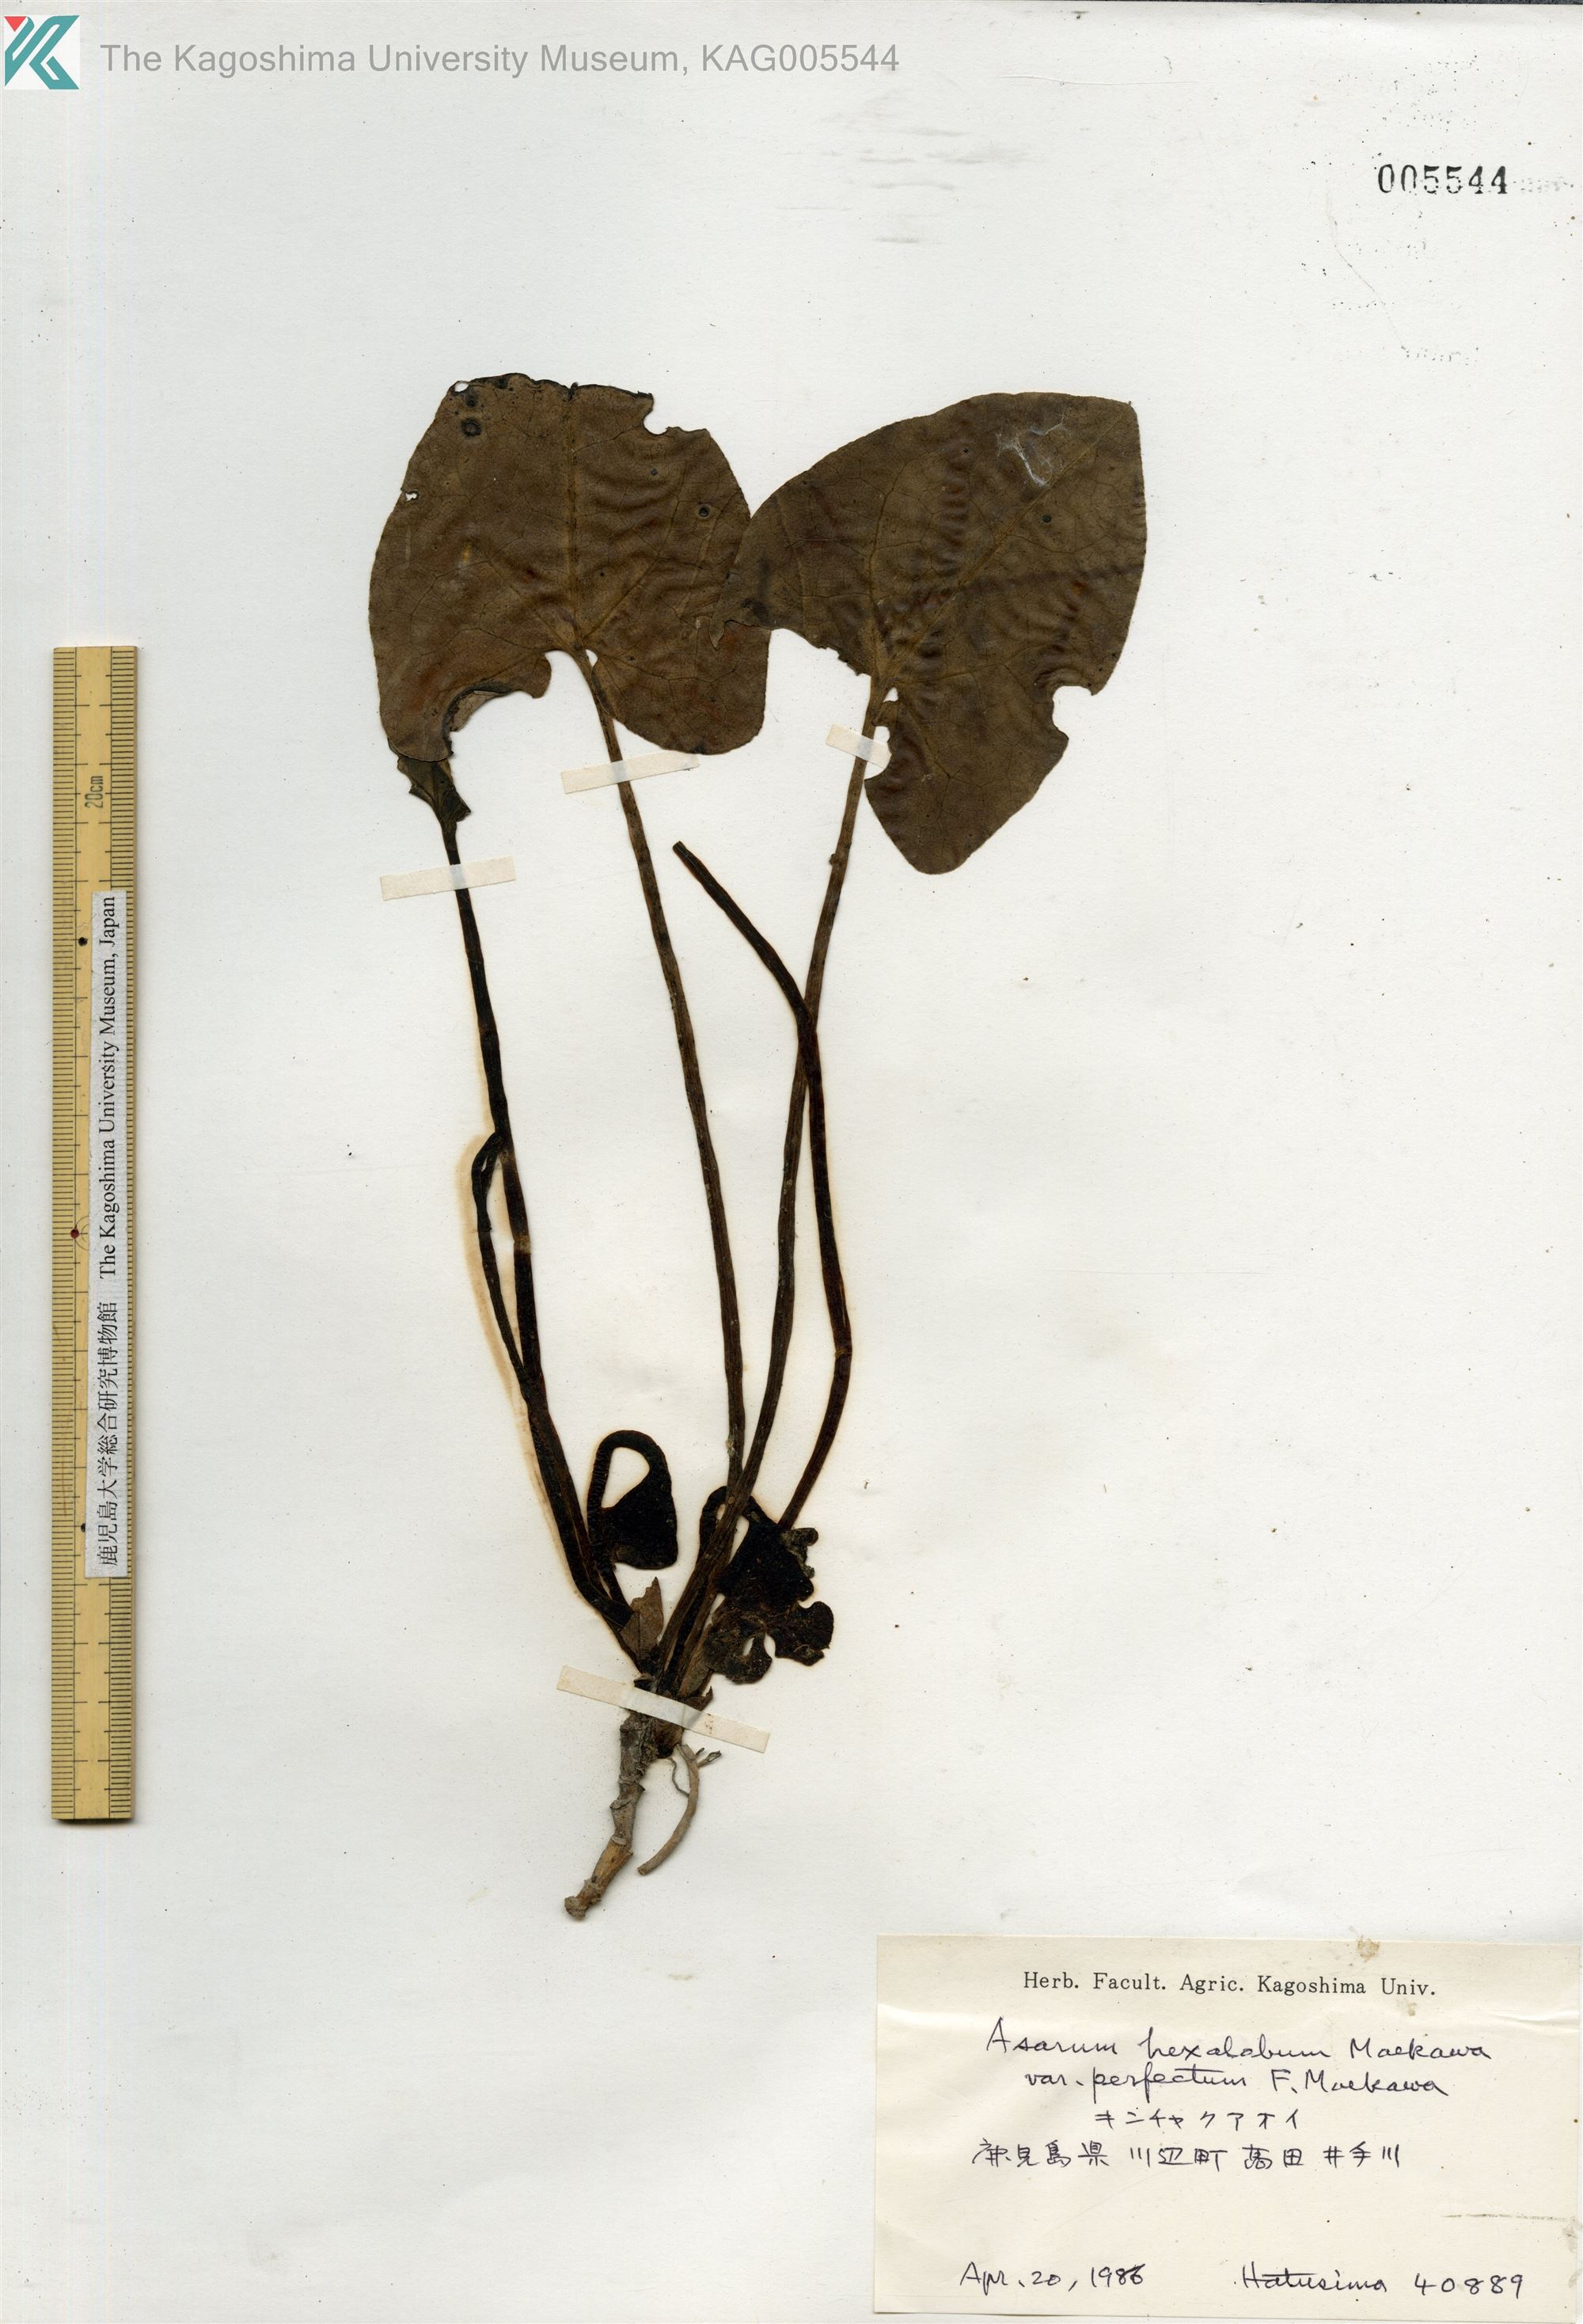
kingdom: Plantae
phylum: Tracheophyta
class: Magnoliopsida
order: Piperales
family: Aristolochiaceae
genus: Asarum
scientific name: Asarum hexalobum
